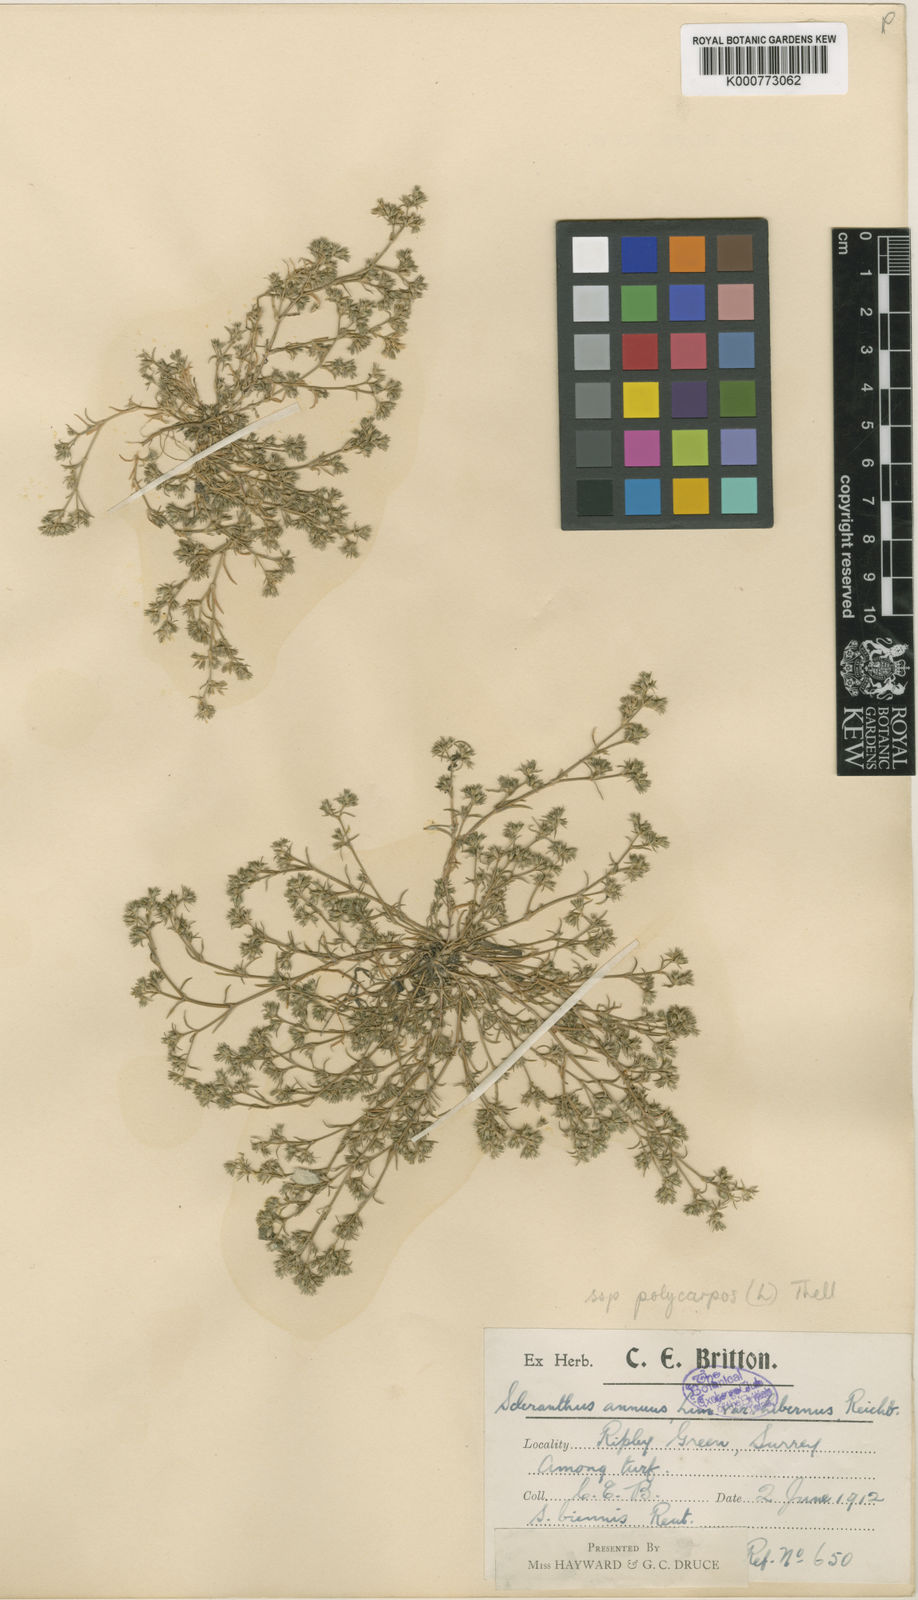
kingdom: Plantae
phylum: Tracheophyta
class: Magnoliopsida
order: Caryophyllales
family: Caryophyllaceae
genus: Scleranthus
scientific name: Scleranthus annuus
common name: Annual knawel
